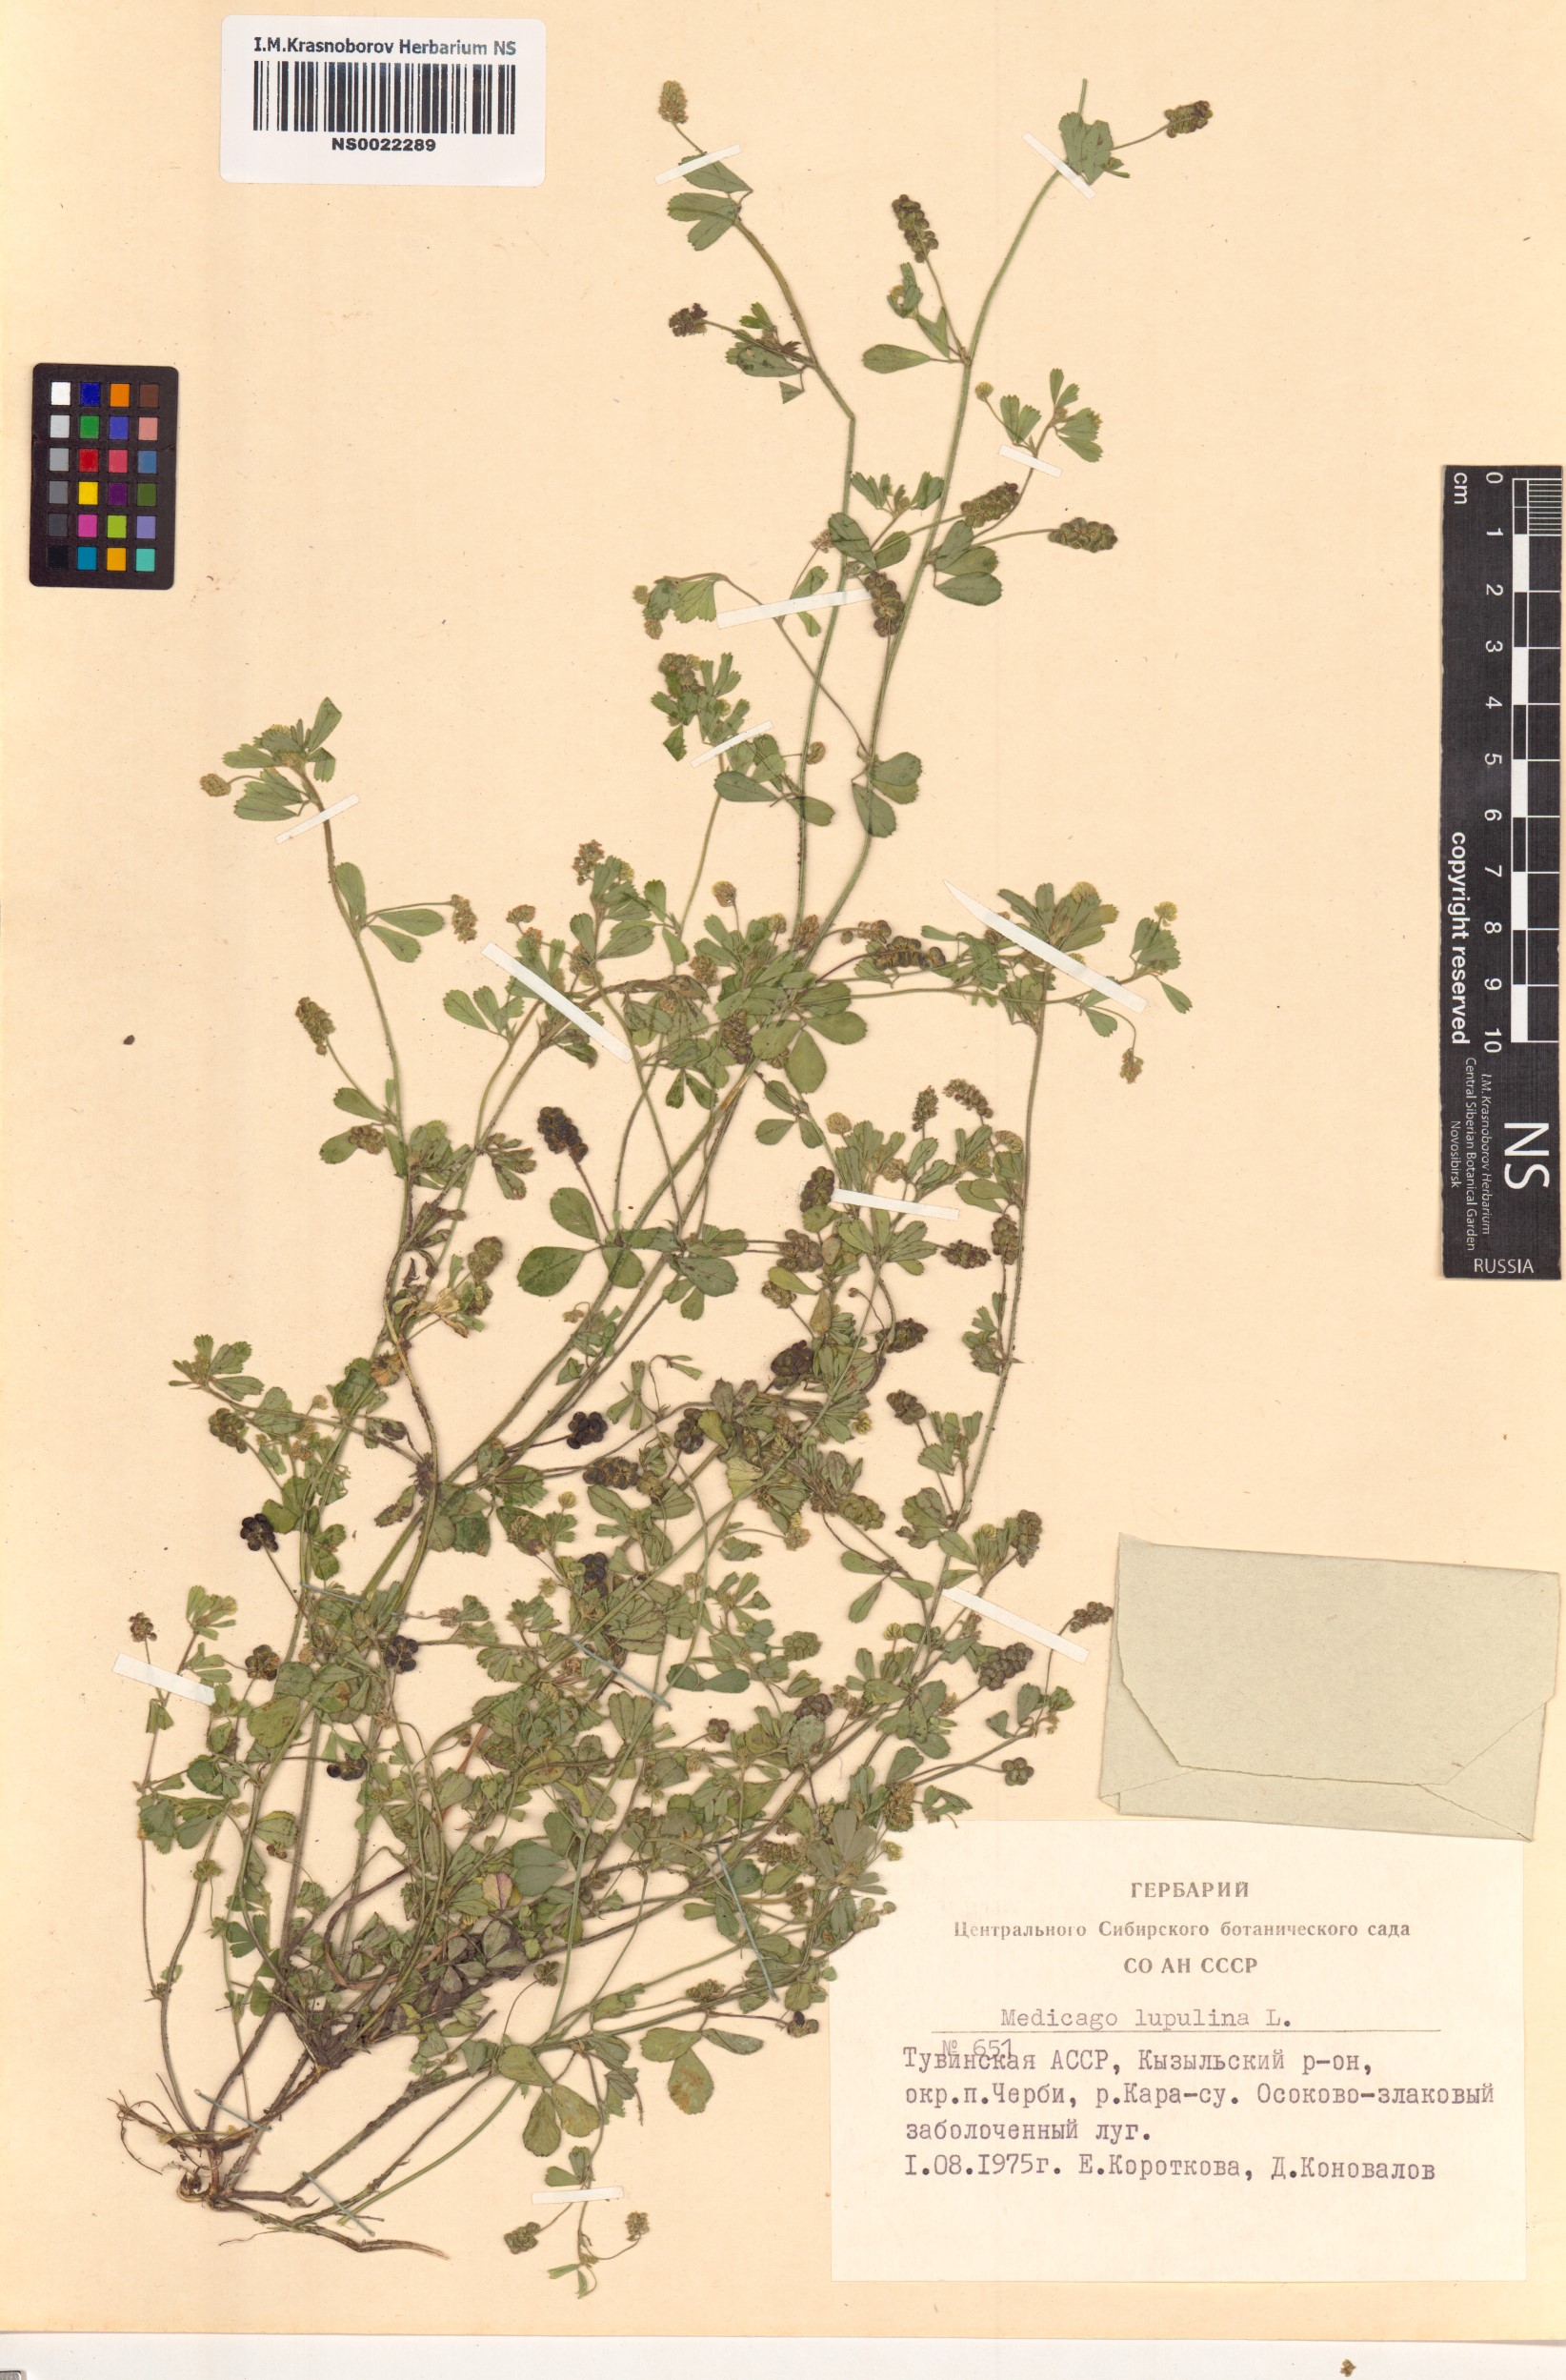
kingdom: Plantae
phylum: Tracheophyta
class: Magnoliopsida
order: Fabales
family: Fabaceae
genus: Medicago
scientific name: Medicago lupulina
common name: Black medick
